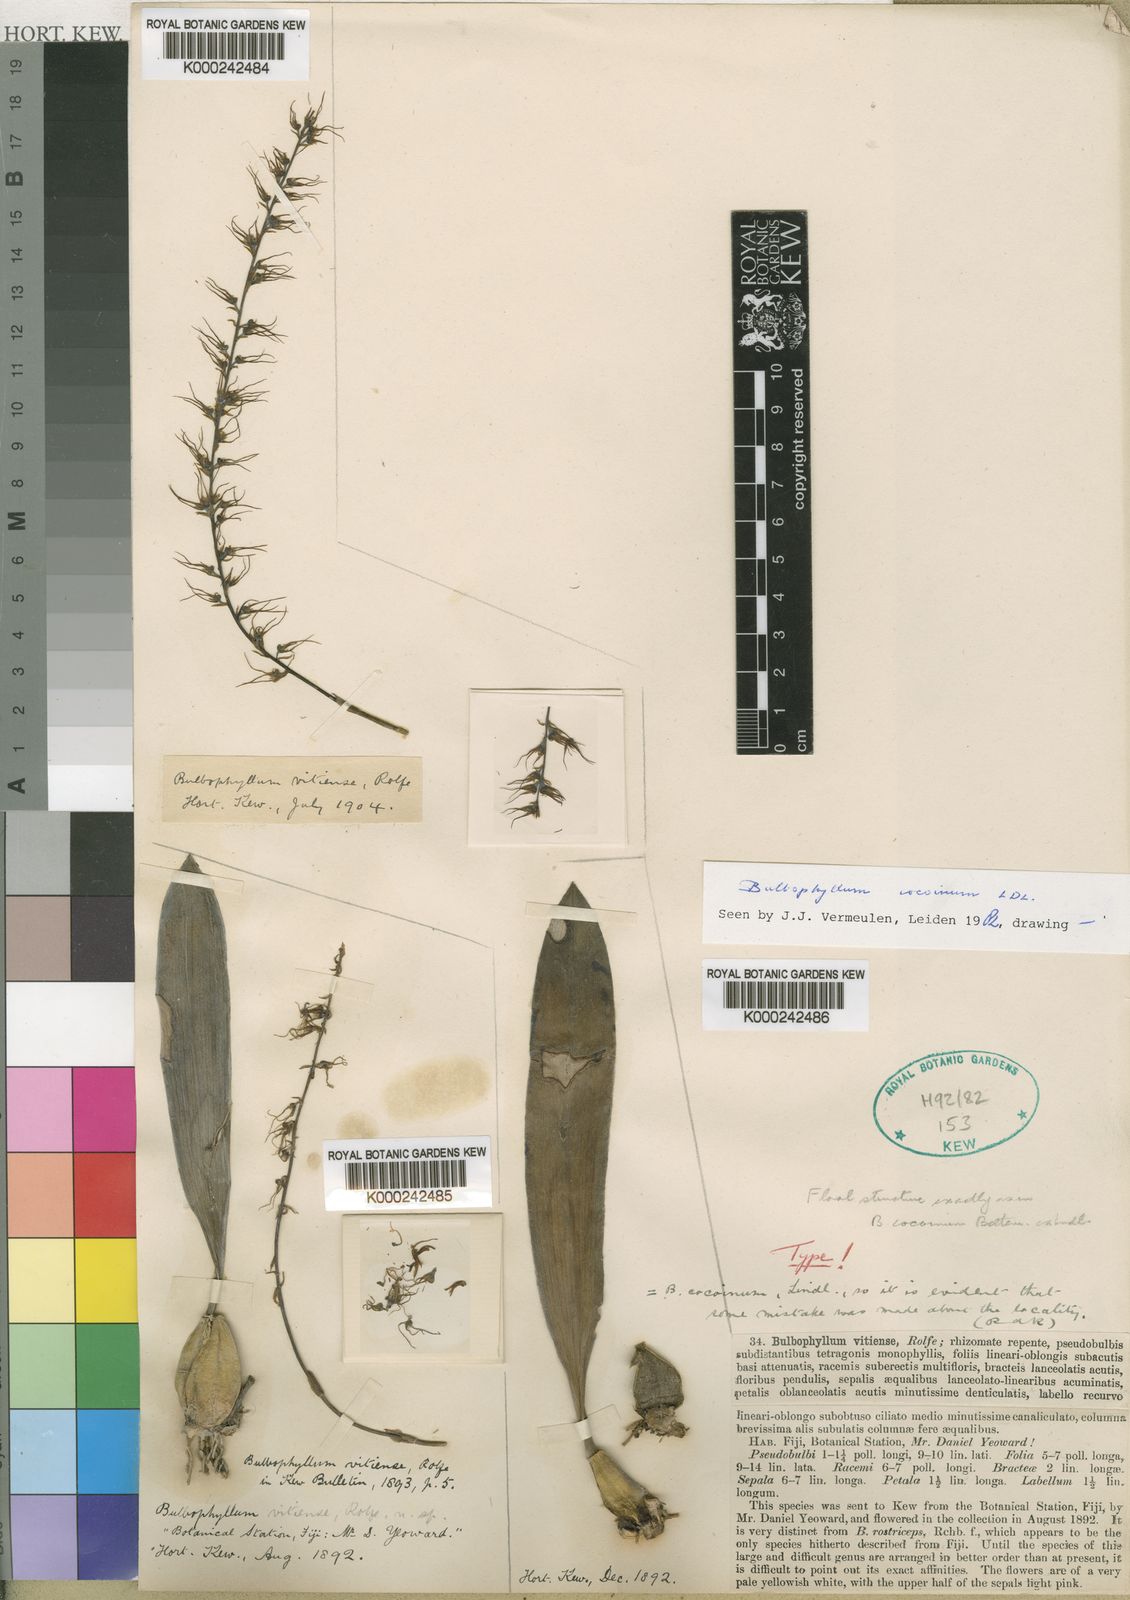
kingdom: Plantae
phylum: Tracheophyta
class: Liliopsida
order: Asparagales
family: Orchidaceae
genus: Bulbophyllum
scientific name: Bulbophyllum cocoinum
